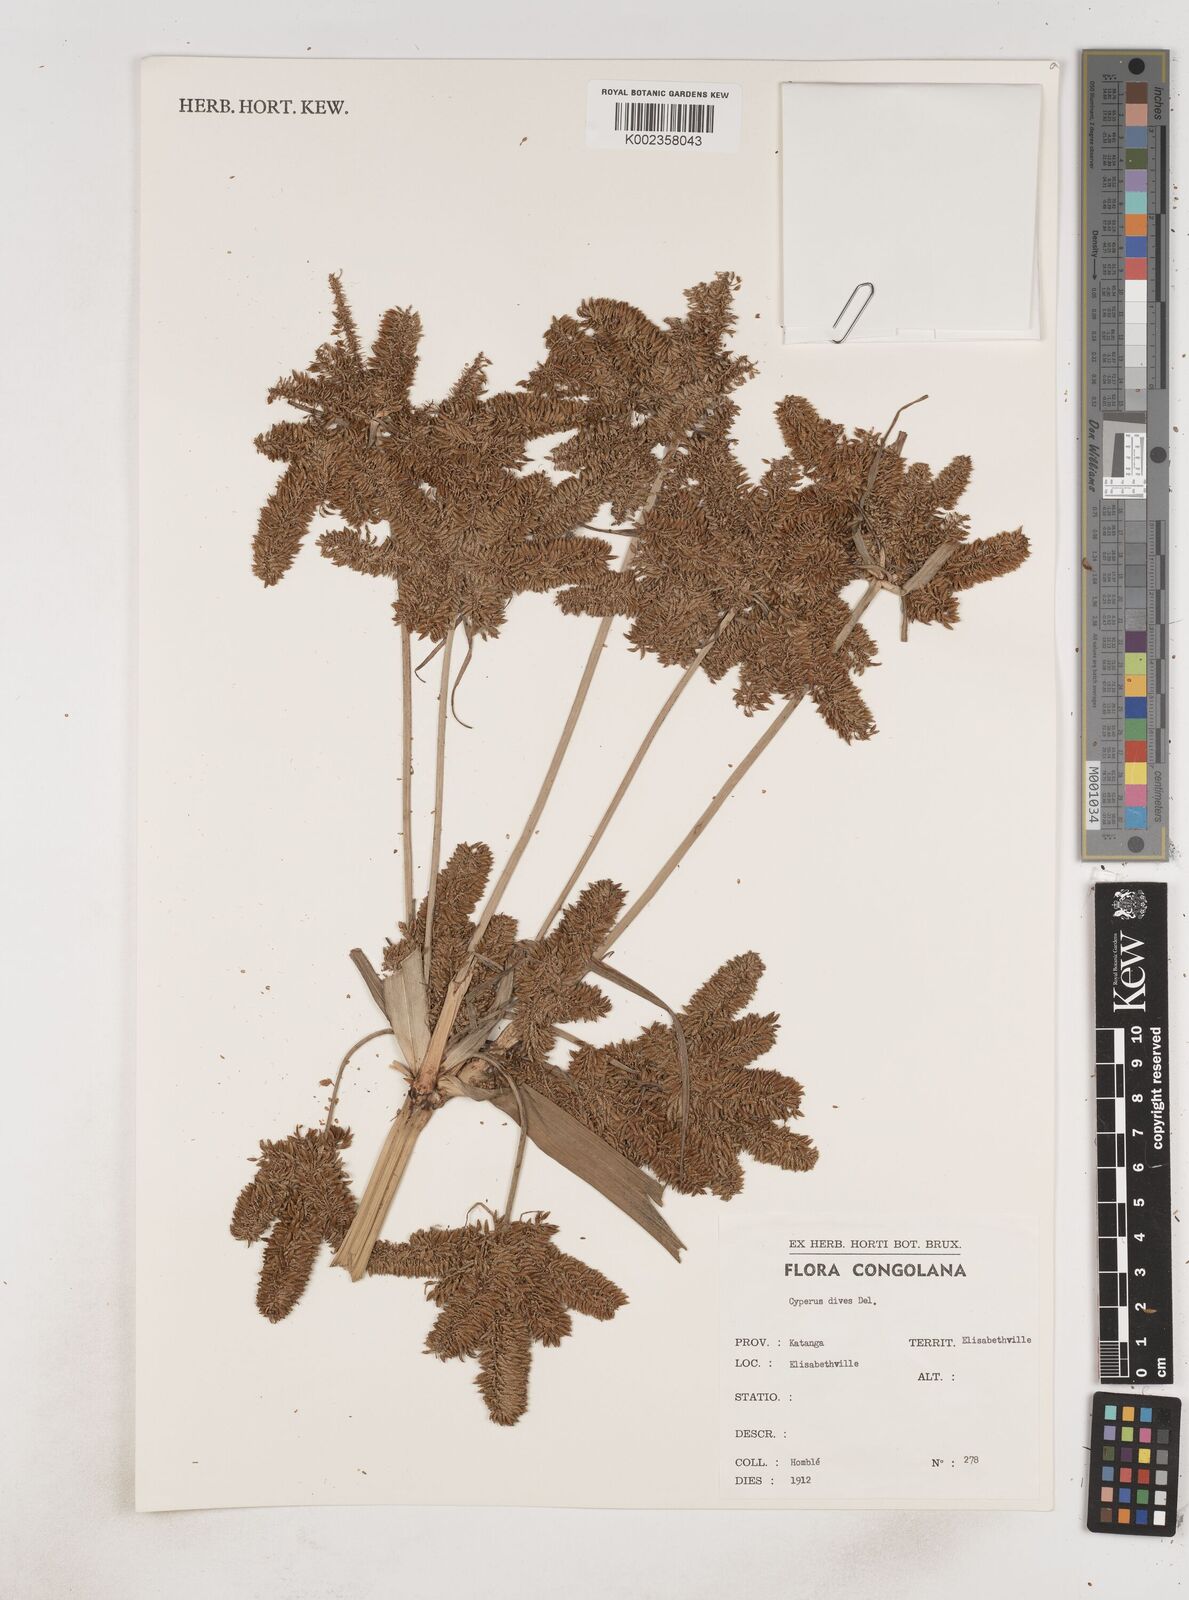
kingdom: Plantae
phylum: Tracheophyta
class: Liliopsida
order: Poales
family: Cyperaceae
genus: Cyperus
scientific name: Cyperus dives
